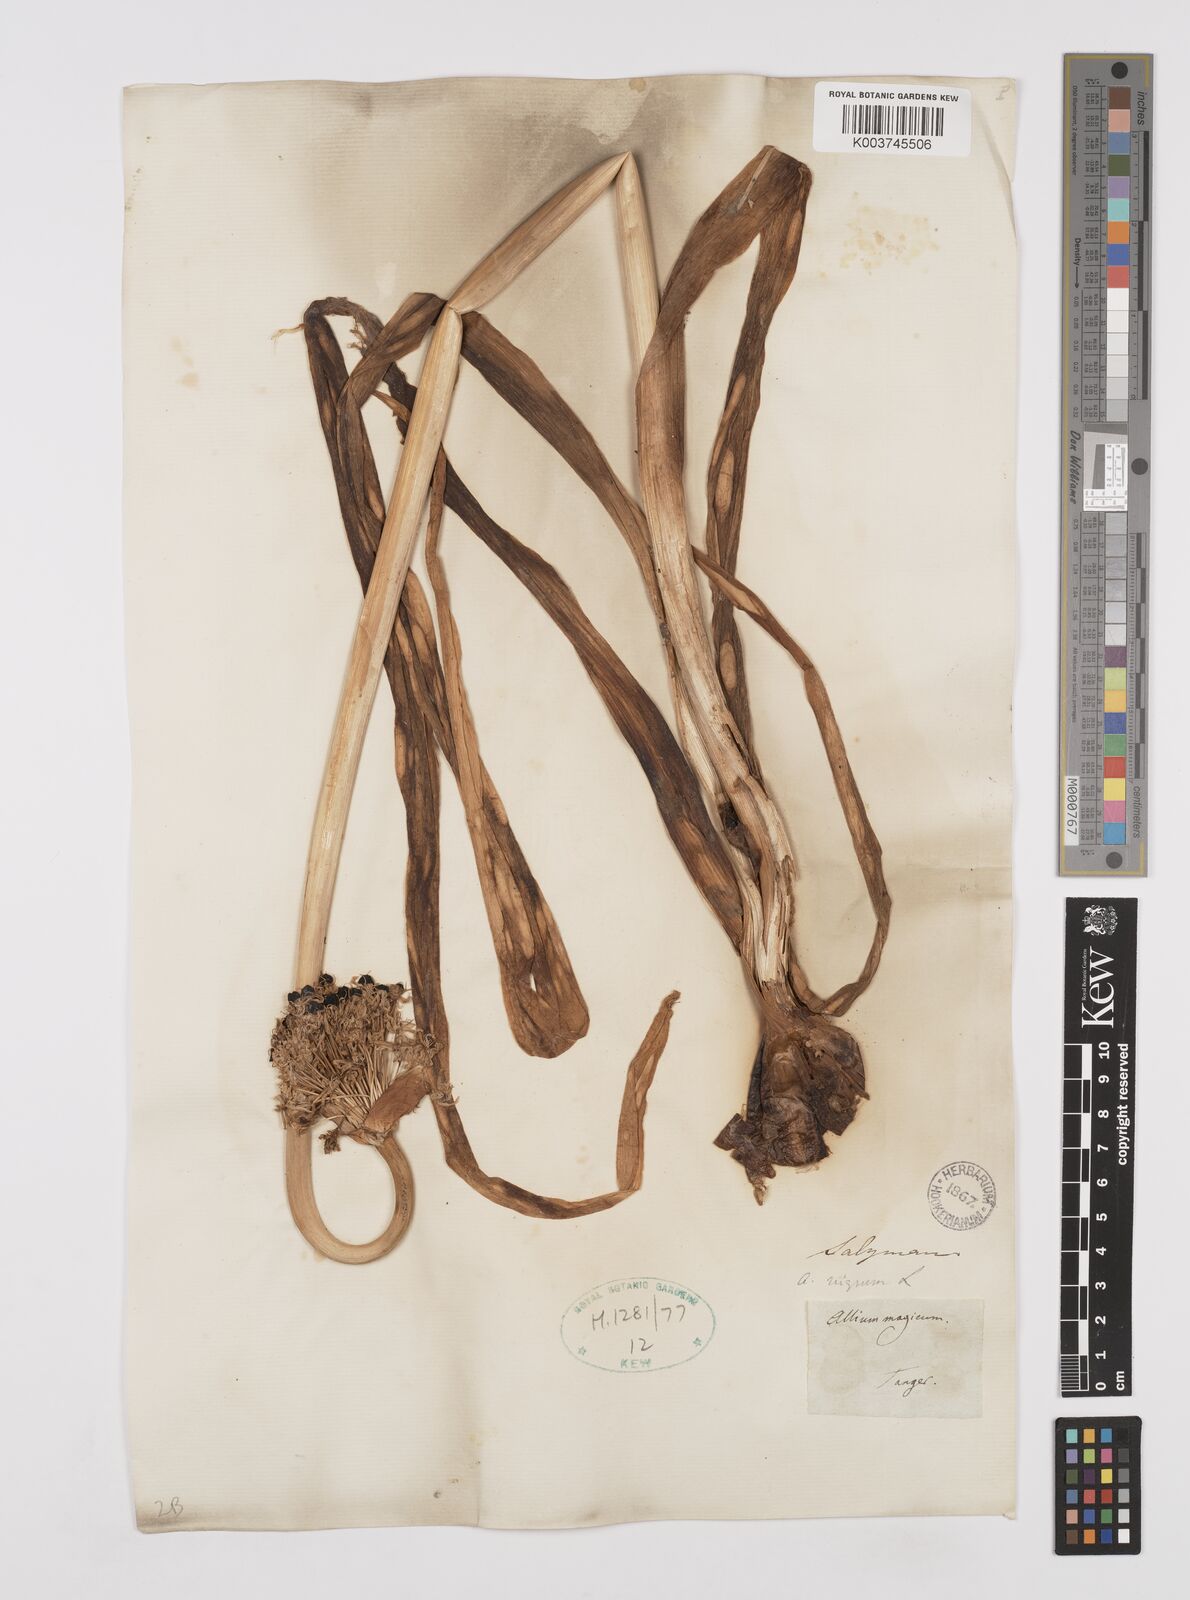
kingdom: Plantae
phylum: Tracheophyta
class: Liliopsida
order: Asparagales
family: Amaryllidaceae
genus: Allium
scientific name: Allium nigrum
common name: Black garlic
